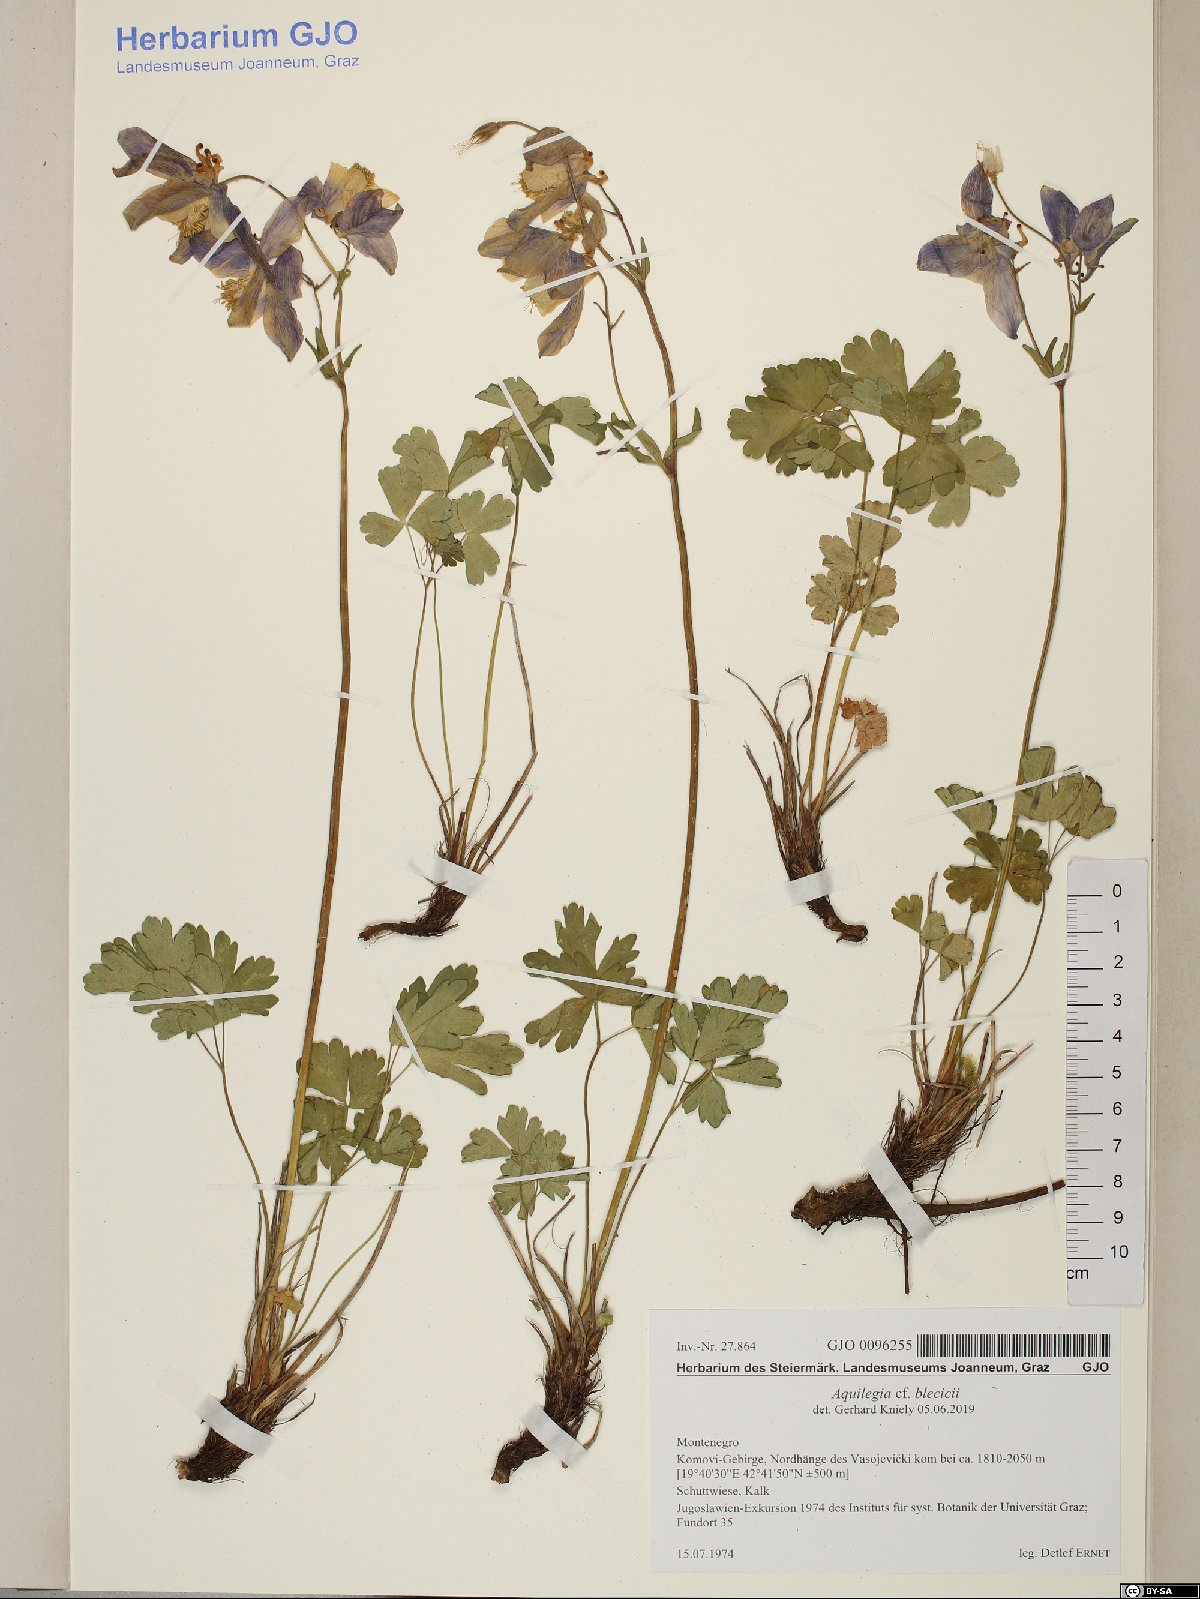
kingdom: Plantae
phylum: Tracheophyta
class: Magnoliopsida
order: Ranunculales
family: Ranunculaceae
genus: Aquilegia
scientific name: Aquilegia blecicii
